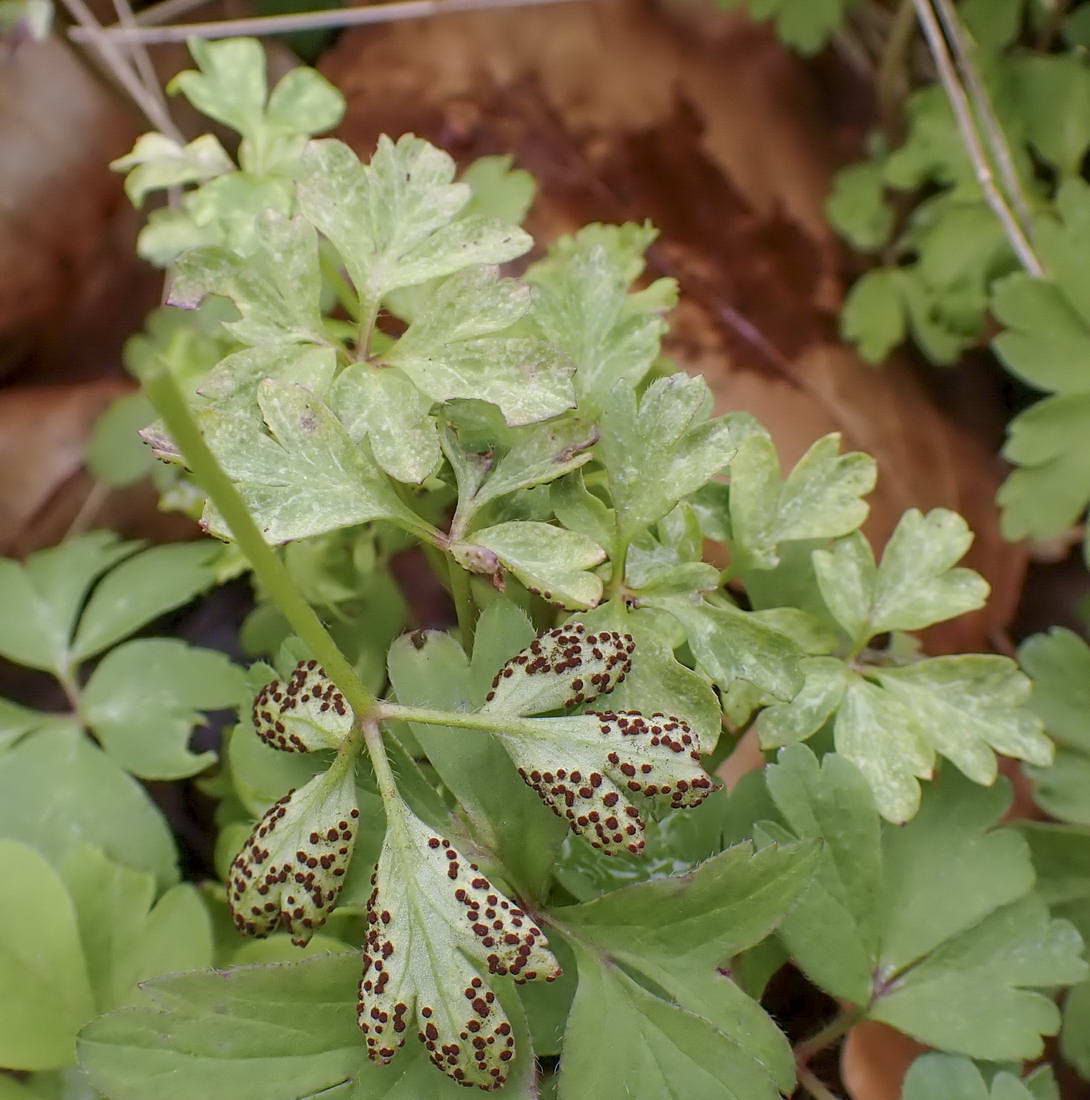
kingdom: Fungi
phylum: Basidiomycota
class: Pucciniomycetes
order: Pucciniales
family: Tranzscheliaceae
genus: Tranzschelia
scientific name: Tranzschelia anemones
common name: anemone-knæksporerust
